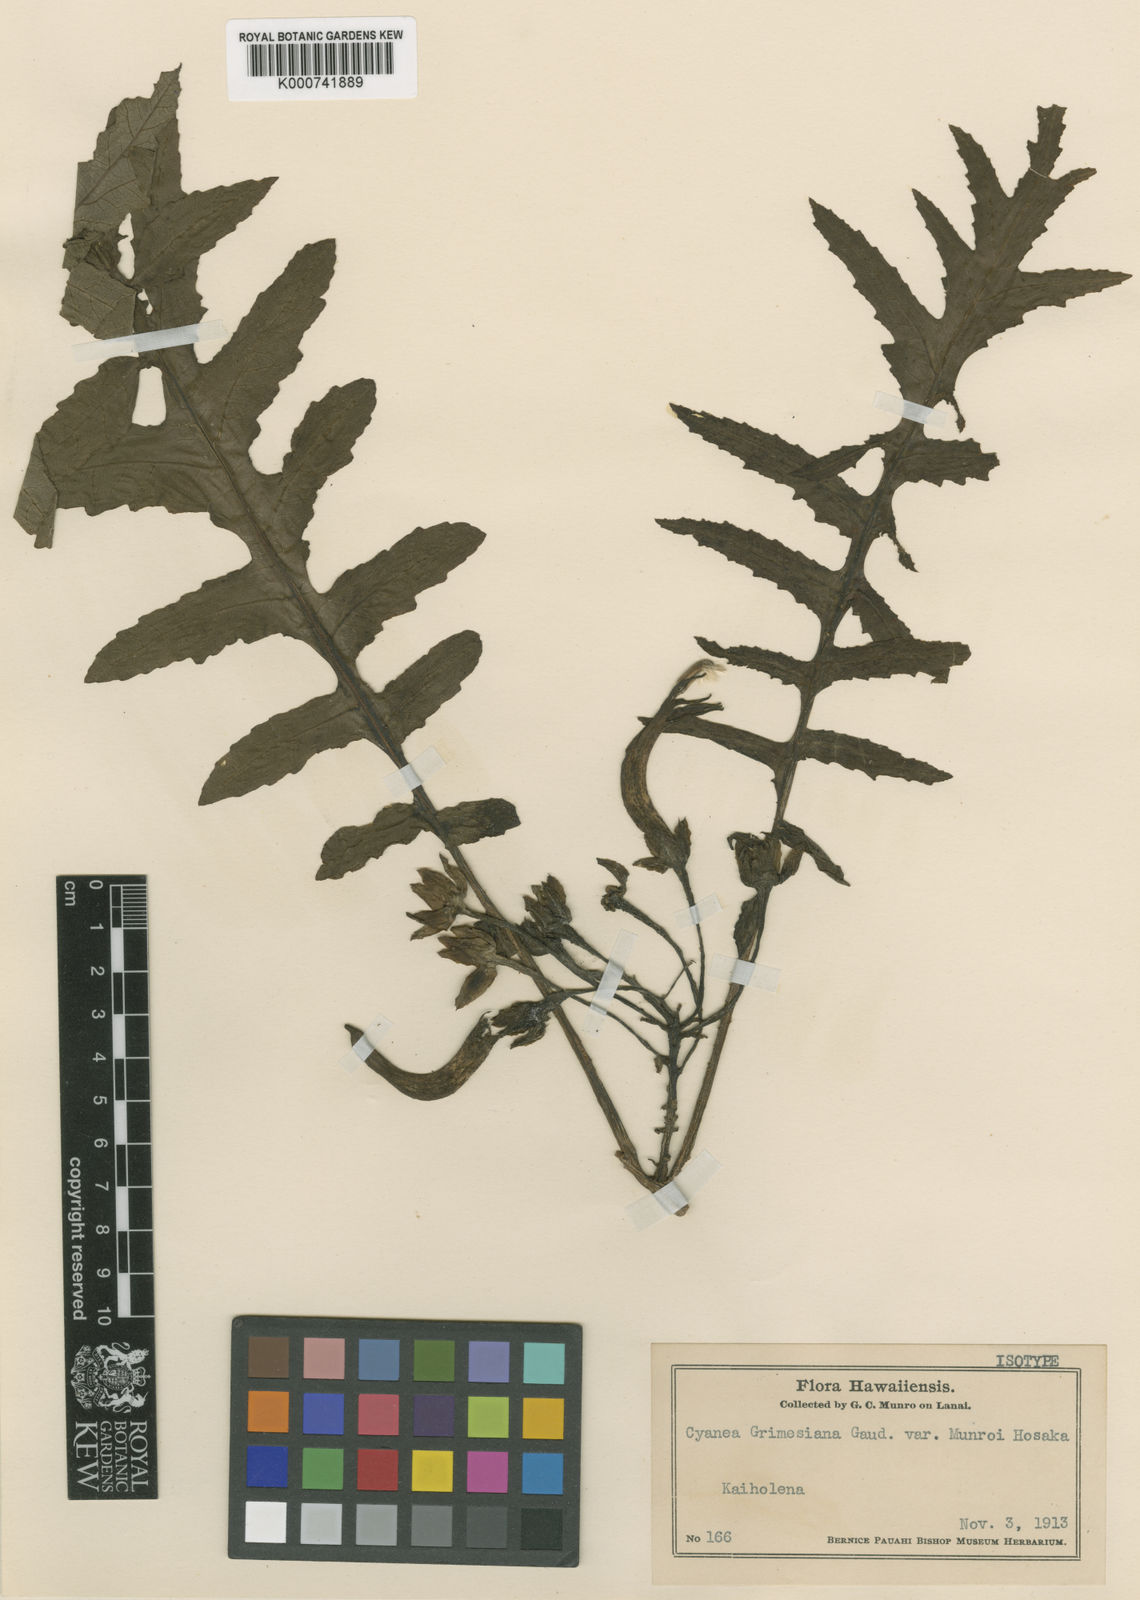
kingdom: Plantae
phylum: Tracheophyta
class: Magnoliopsida
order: Asterales
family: Campanulaceae
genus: Cyanea
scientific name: Cyanea grimesiana
